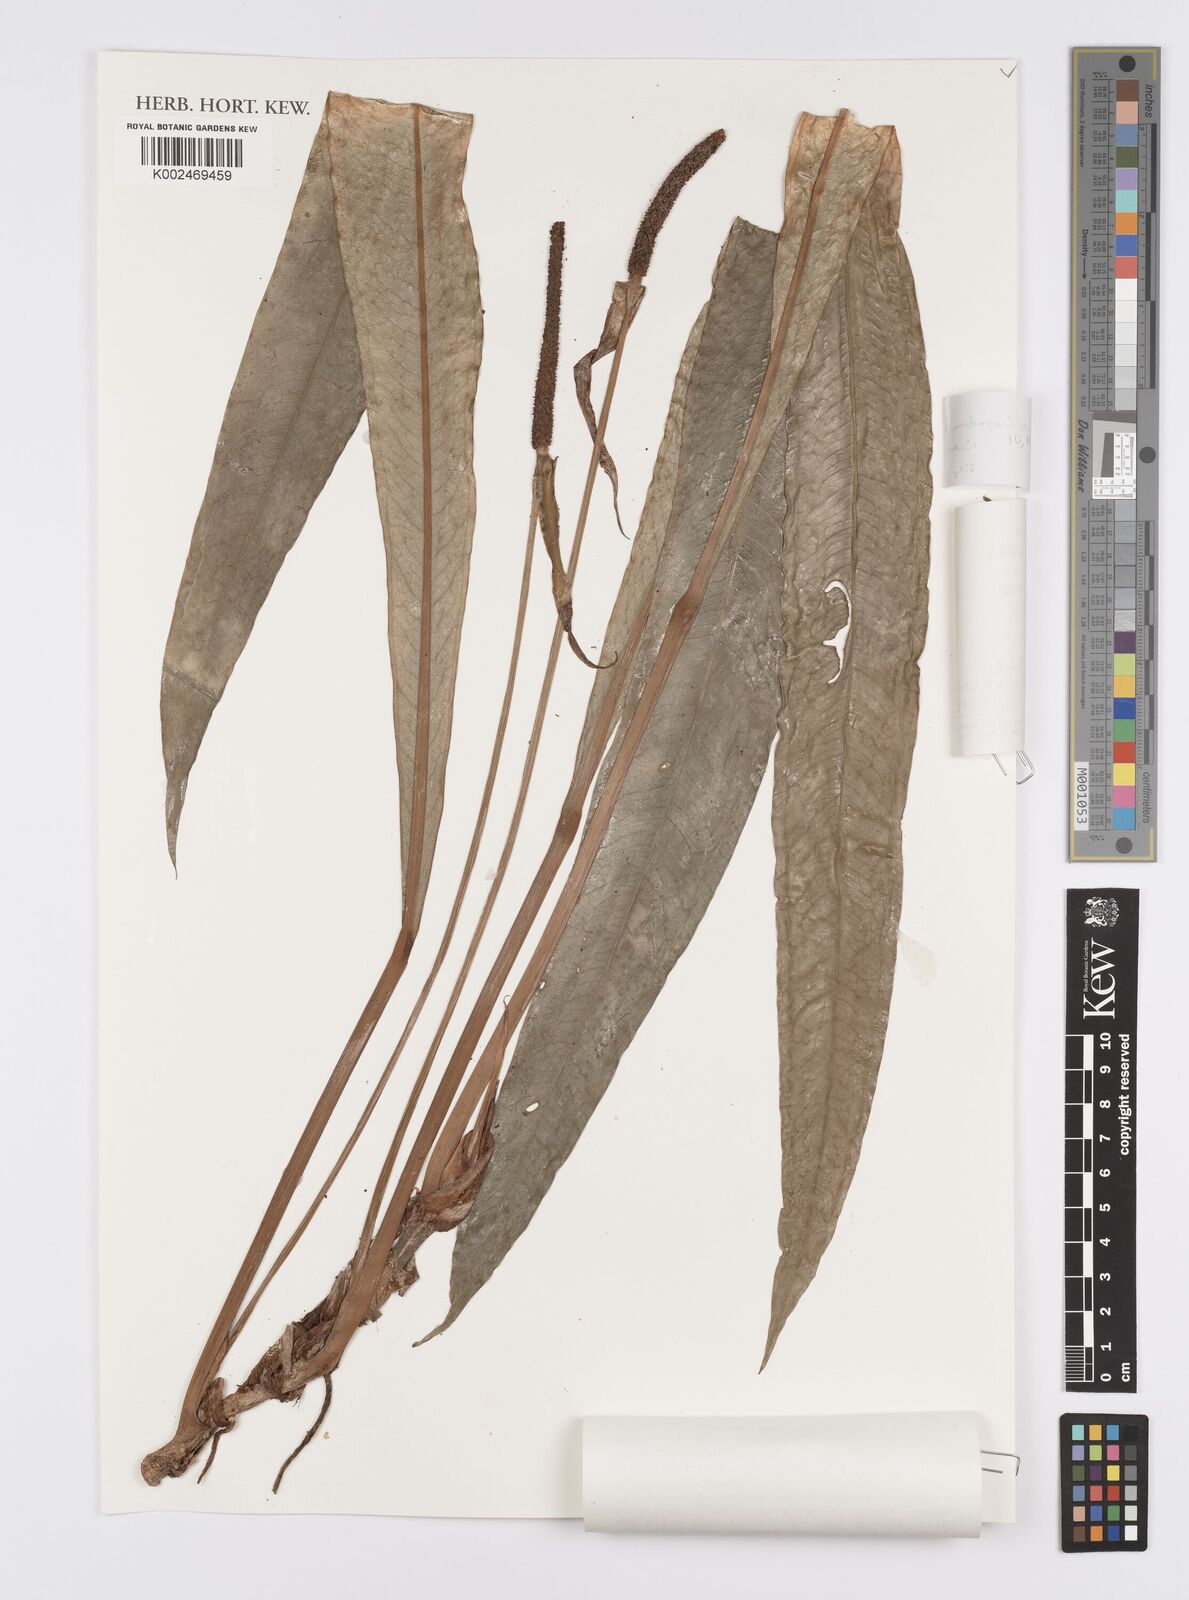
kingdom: Plantae
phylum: Tracheophyta
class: Liliopsida
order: Alismatales
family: Araceae
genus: Anthurium
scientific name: Anthurium ianthinopodum
